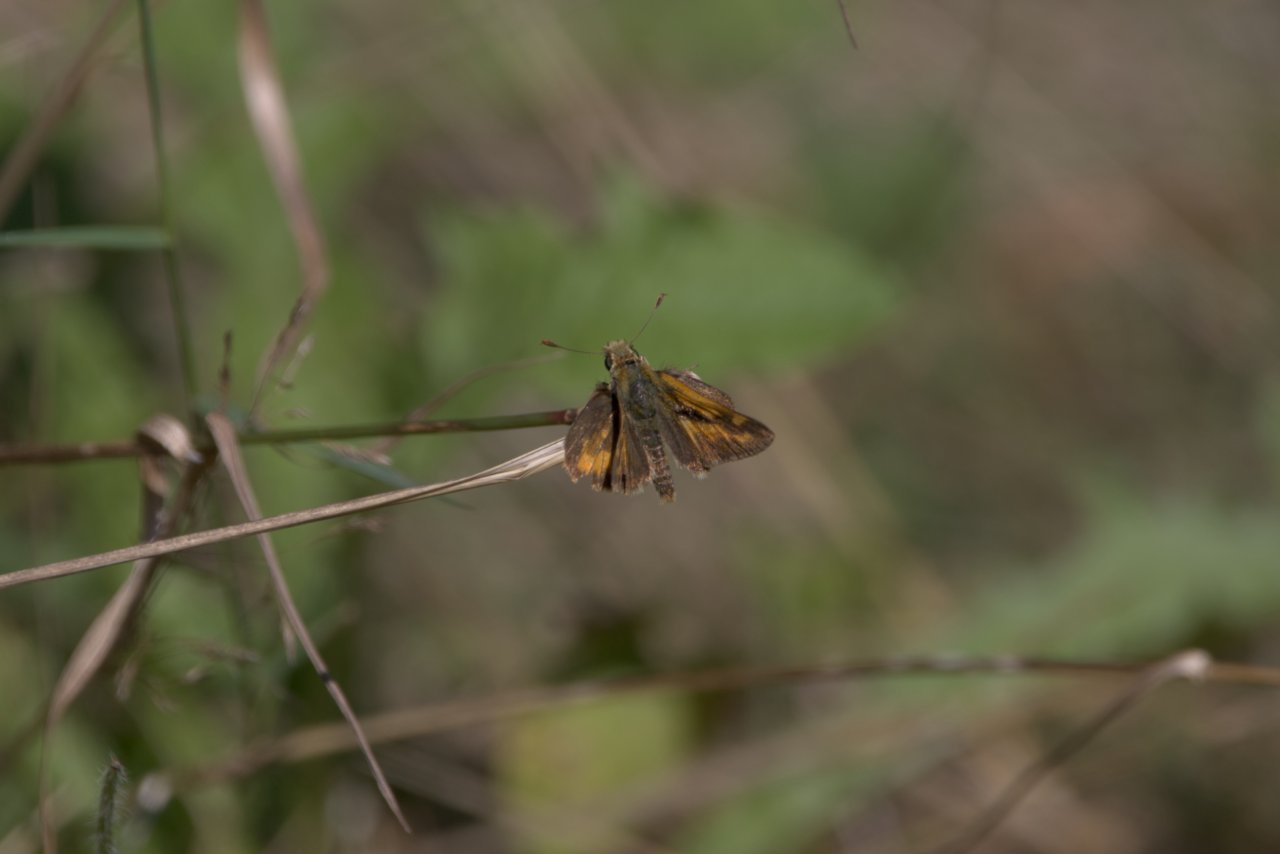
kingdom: Animalia
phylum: Arthropoda
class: Insecta
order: Lepidoptera
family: Hesperiidae
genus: Ochlodes
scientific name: Ochlodes sylvanoides
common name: Woodland Skipper
